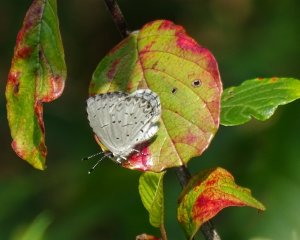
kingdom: Animalia
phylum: Arthropoda
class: Insecta
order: Lepidoptera
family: Lycaenidae
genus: Cyaniris
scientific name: Cyaniris neglecta
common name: Summer Azure
